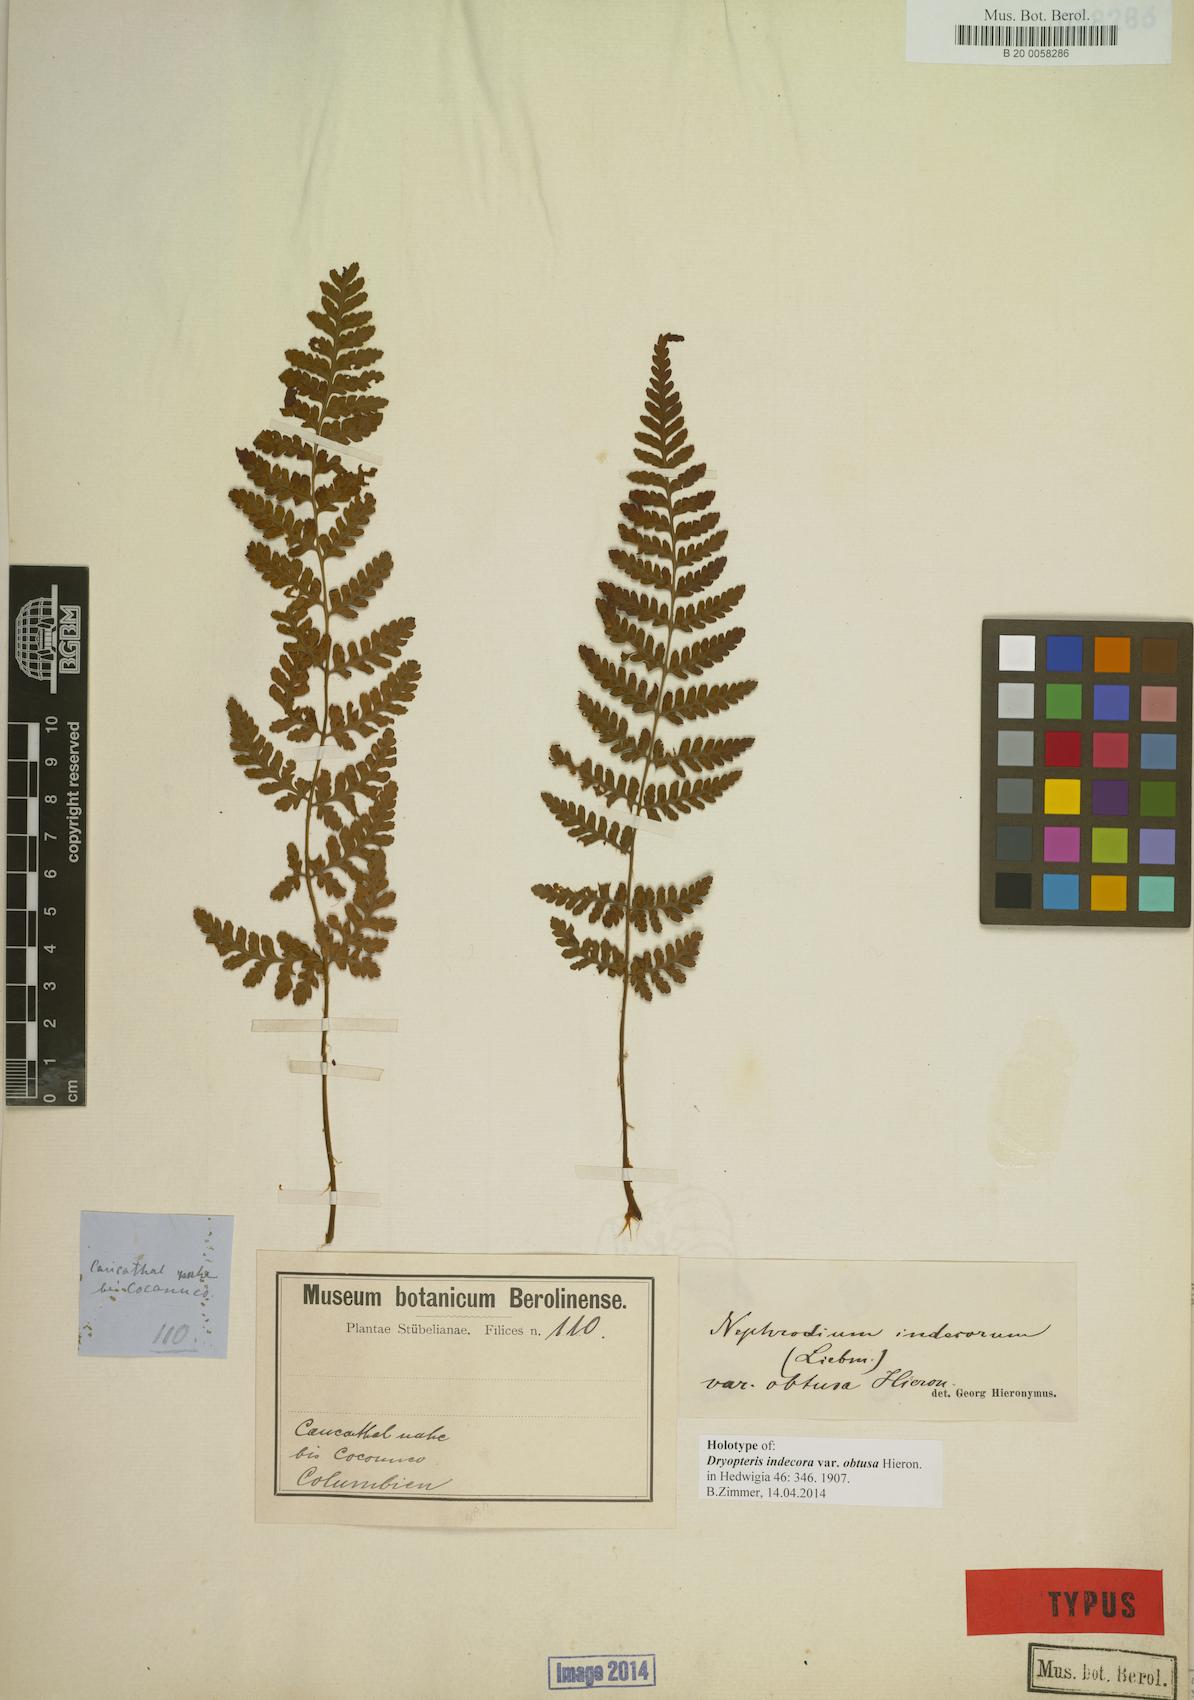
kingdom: Plantae
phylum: Tracheophyta
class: Polypodiopsida
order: Polypodiales
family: Dryopteridaceae
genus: Dryopteris
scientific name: Dryopteris cinnamomea
